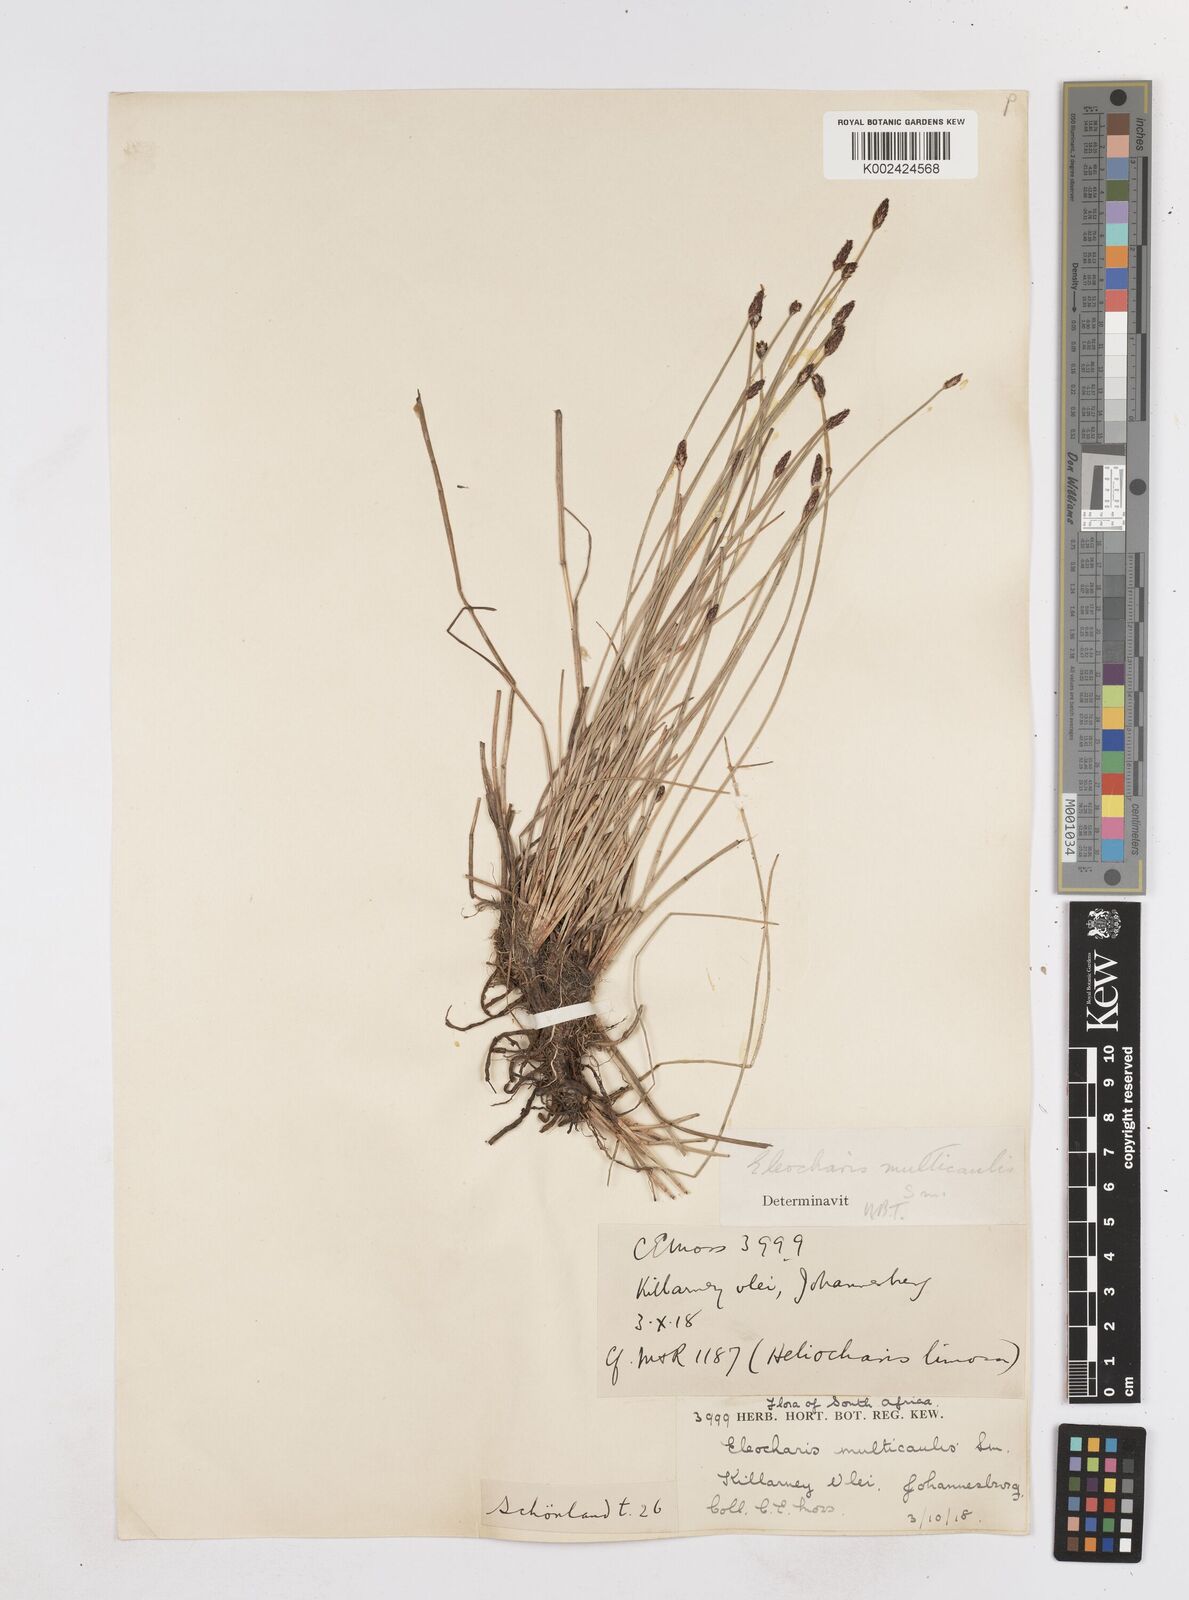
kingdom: Plantae
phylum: Tracheophyta
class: Liliopsida
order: Poales
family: Cyperaceae
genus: Eleocharis
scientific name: Eleocharis palustris
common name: Common spike-rush
